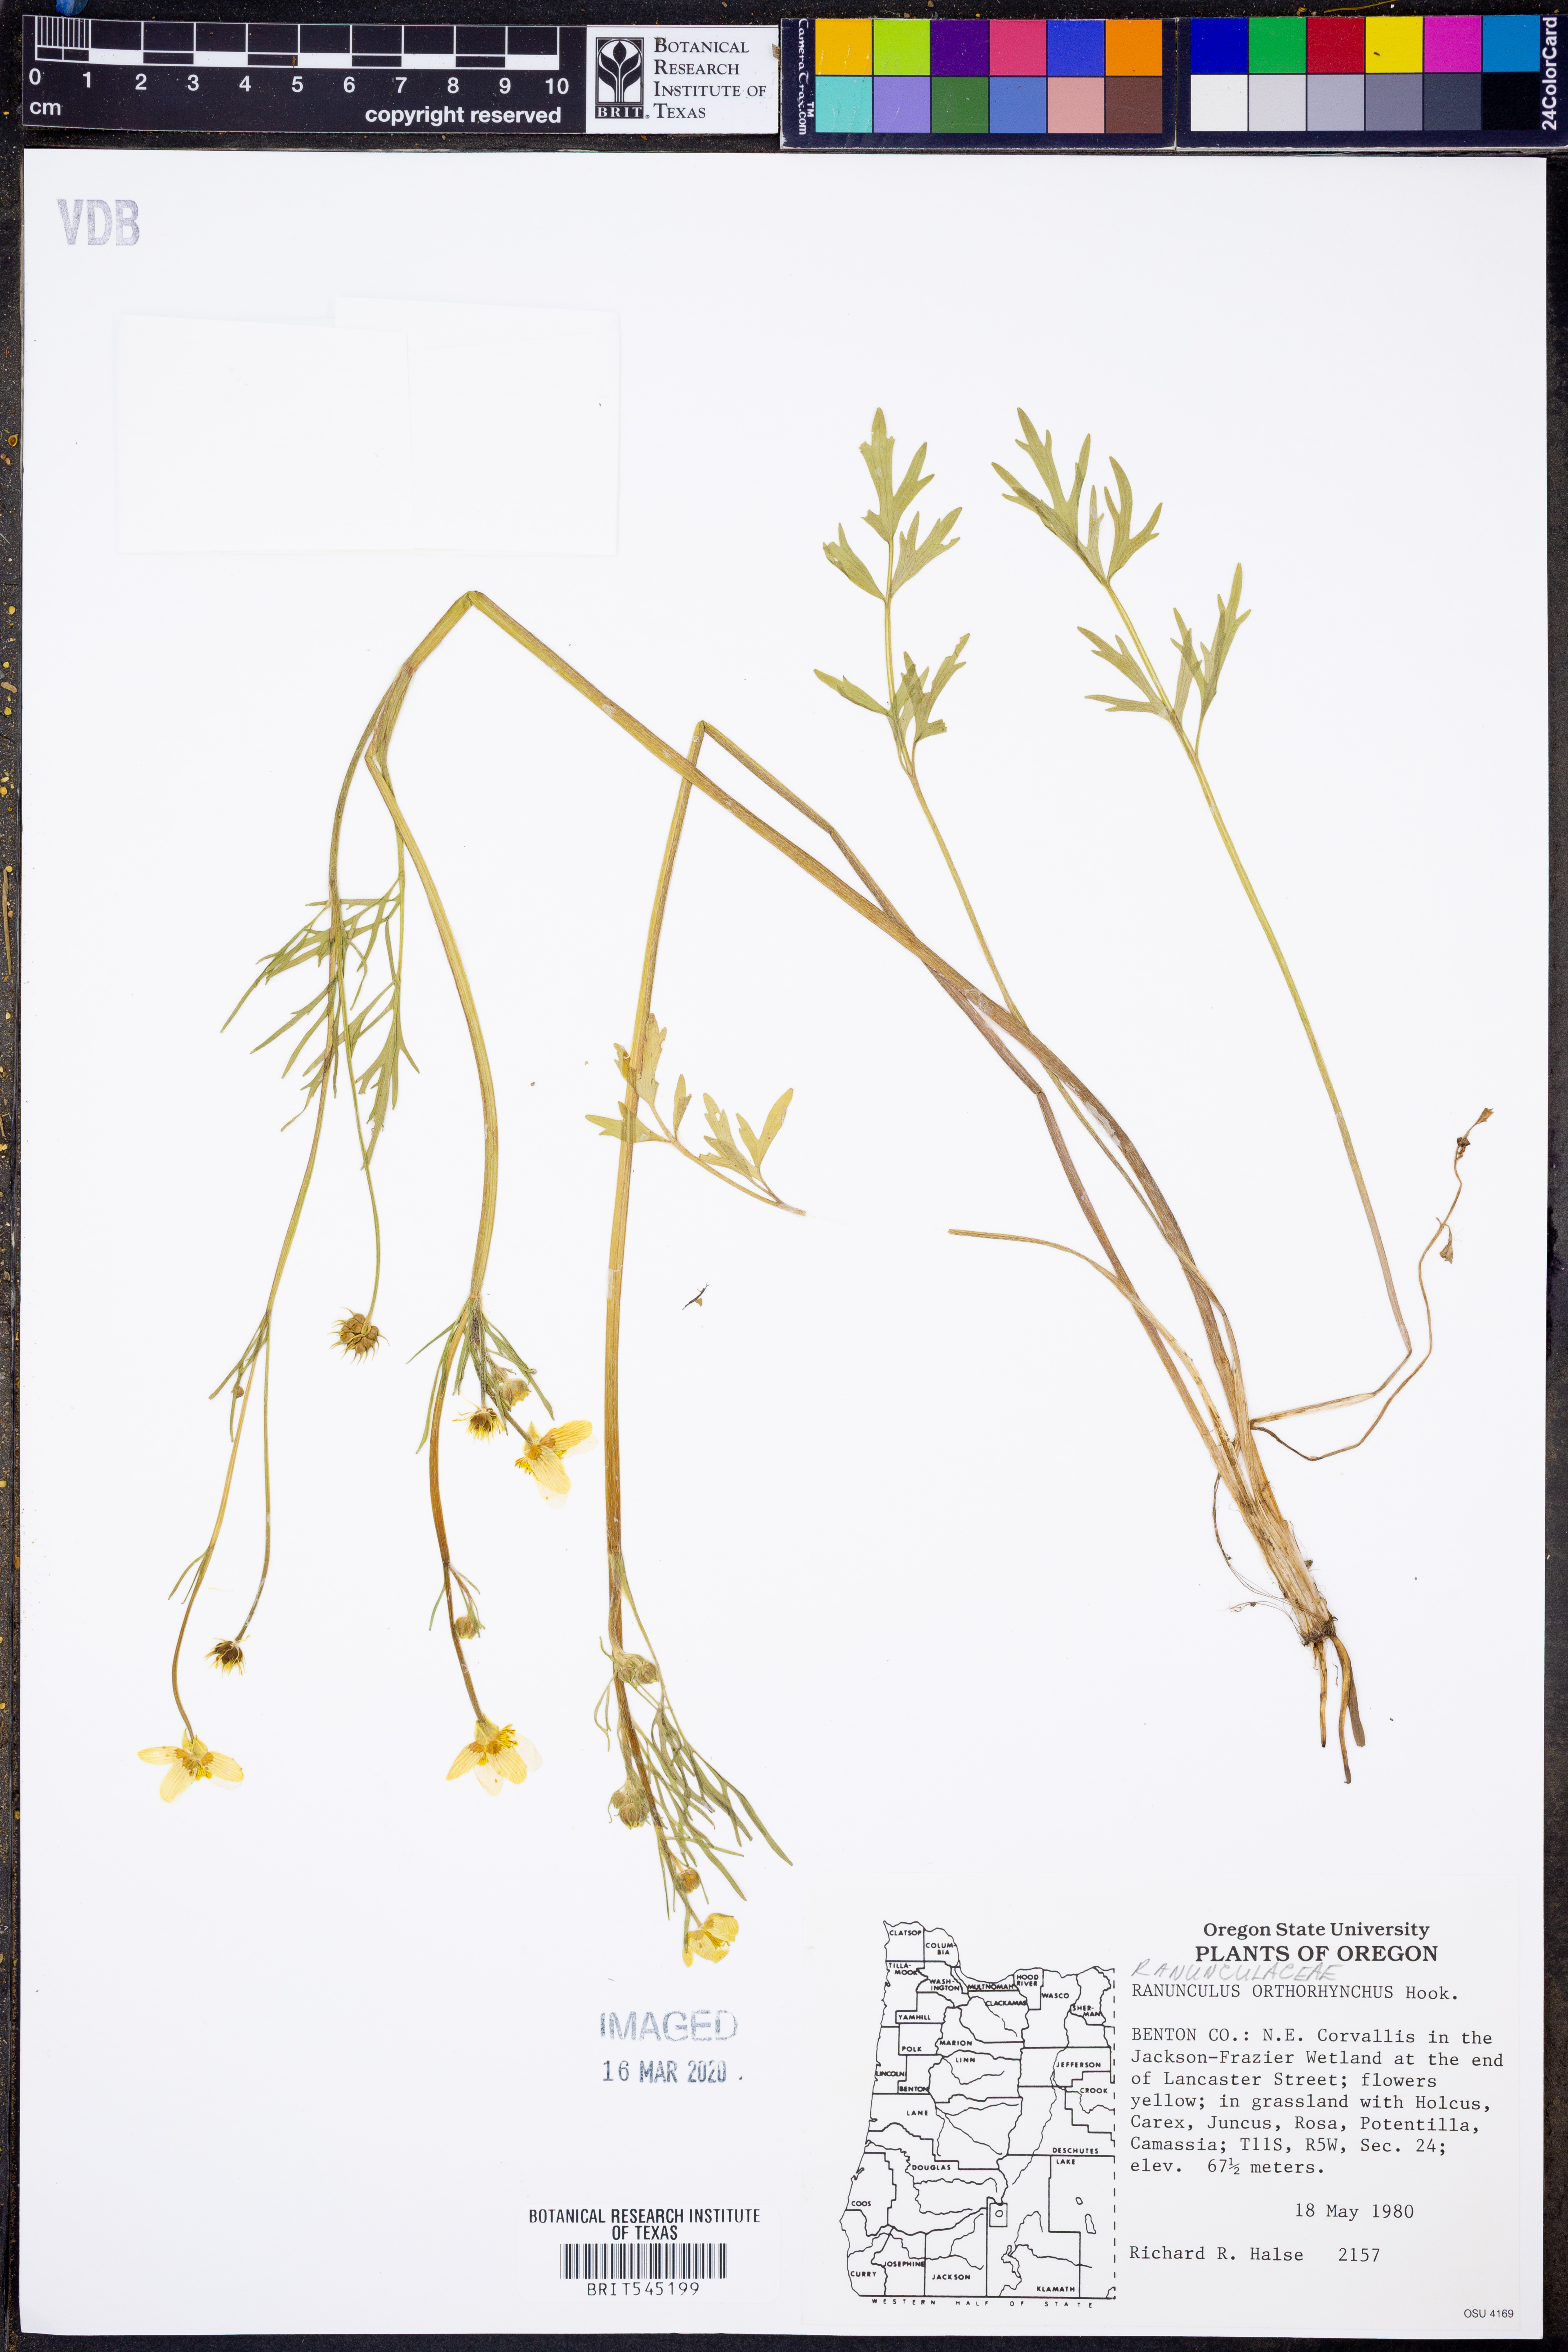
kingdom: Plantae
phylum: Tracheophyta
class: Magnoliopsida
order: Ranunculales
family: Ranunculaceae
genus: Ranunculus
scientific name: Ranunculus orthorhynchus
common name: Straight-beak buttercup
